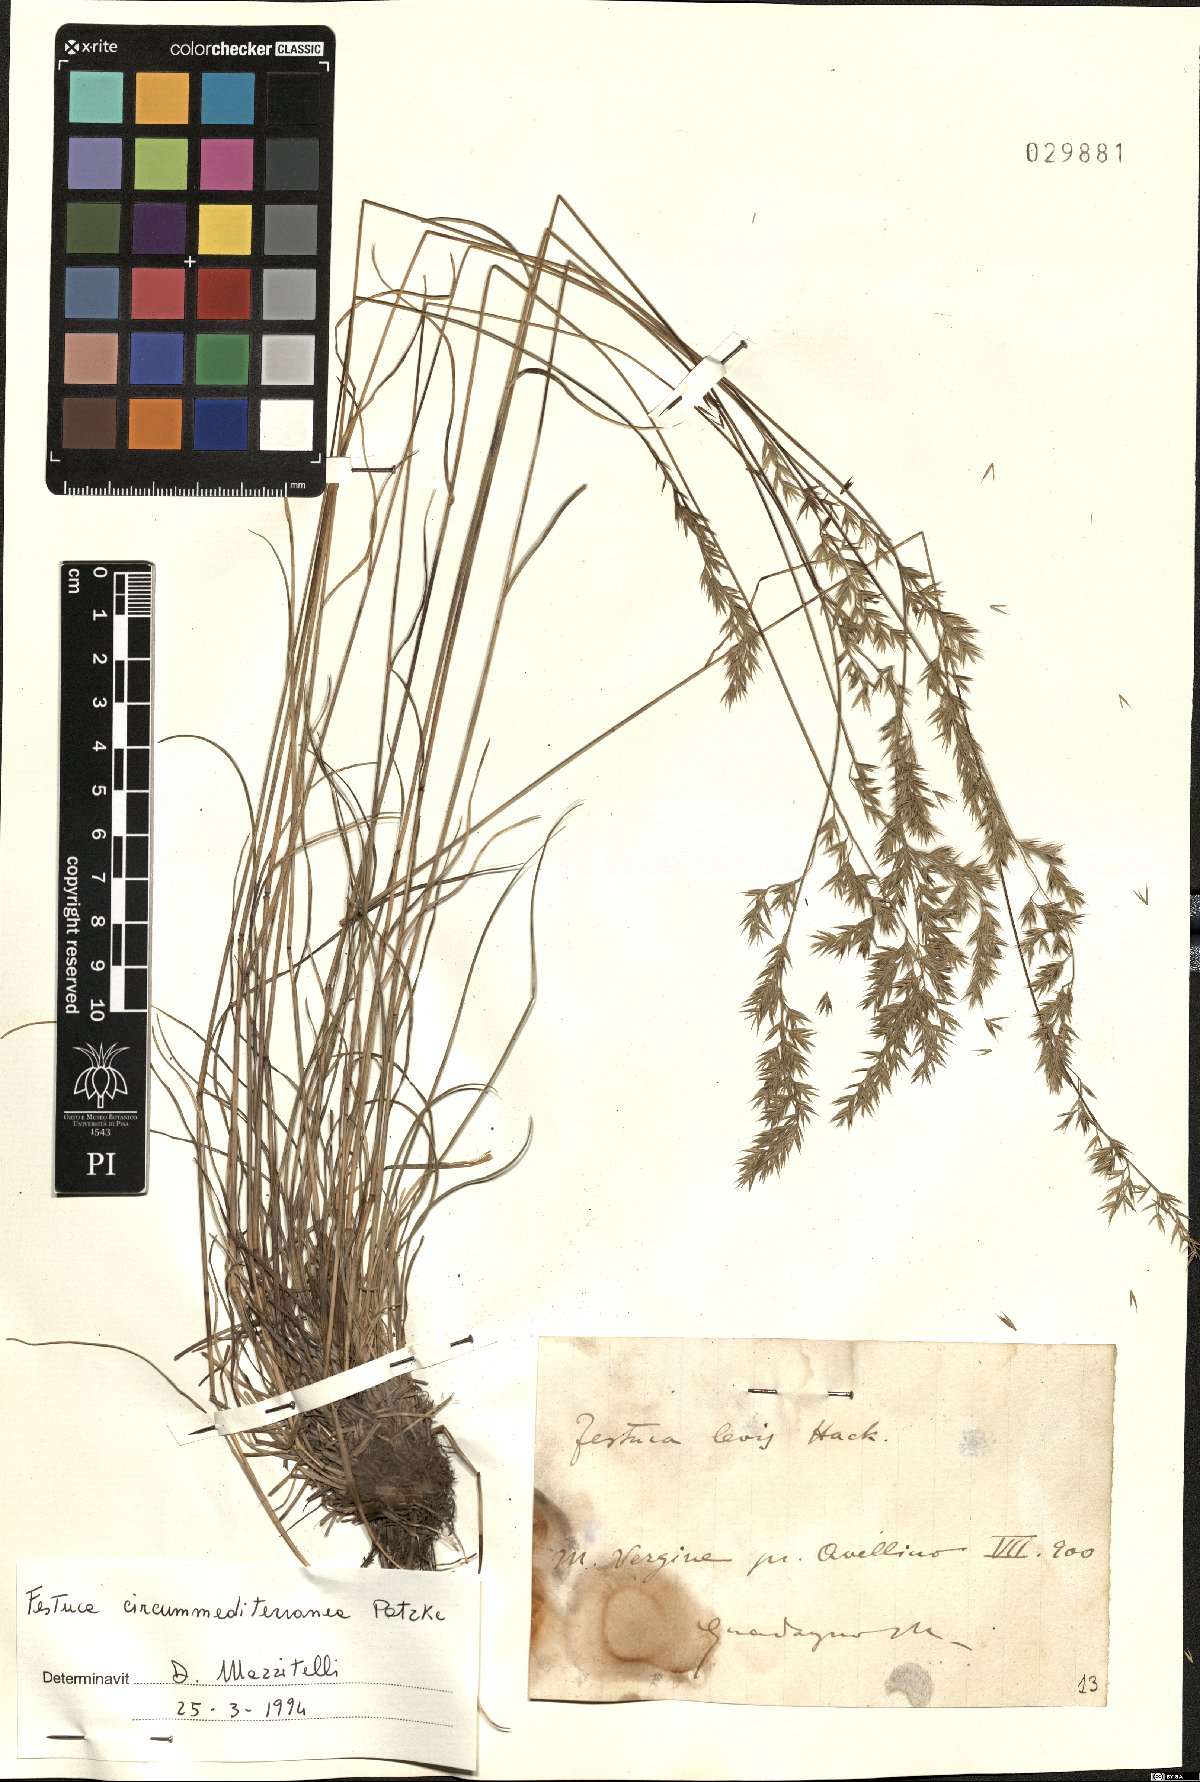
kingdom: Plantae
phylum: Tracheophyta
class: Liliopsida
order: Poales
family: Poaceae
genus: Festuca
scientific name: Festuca circummediterranea
